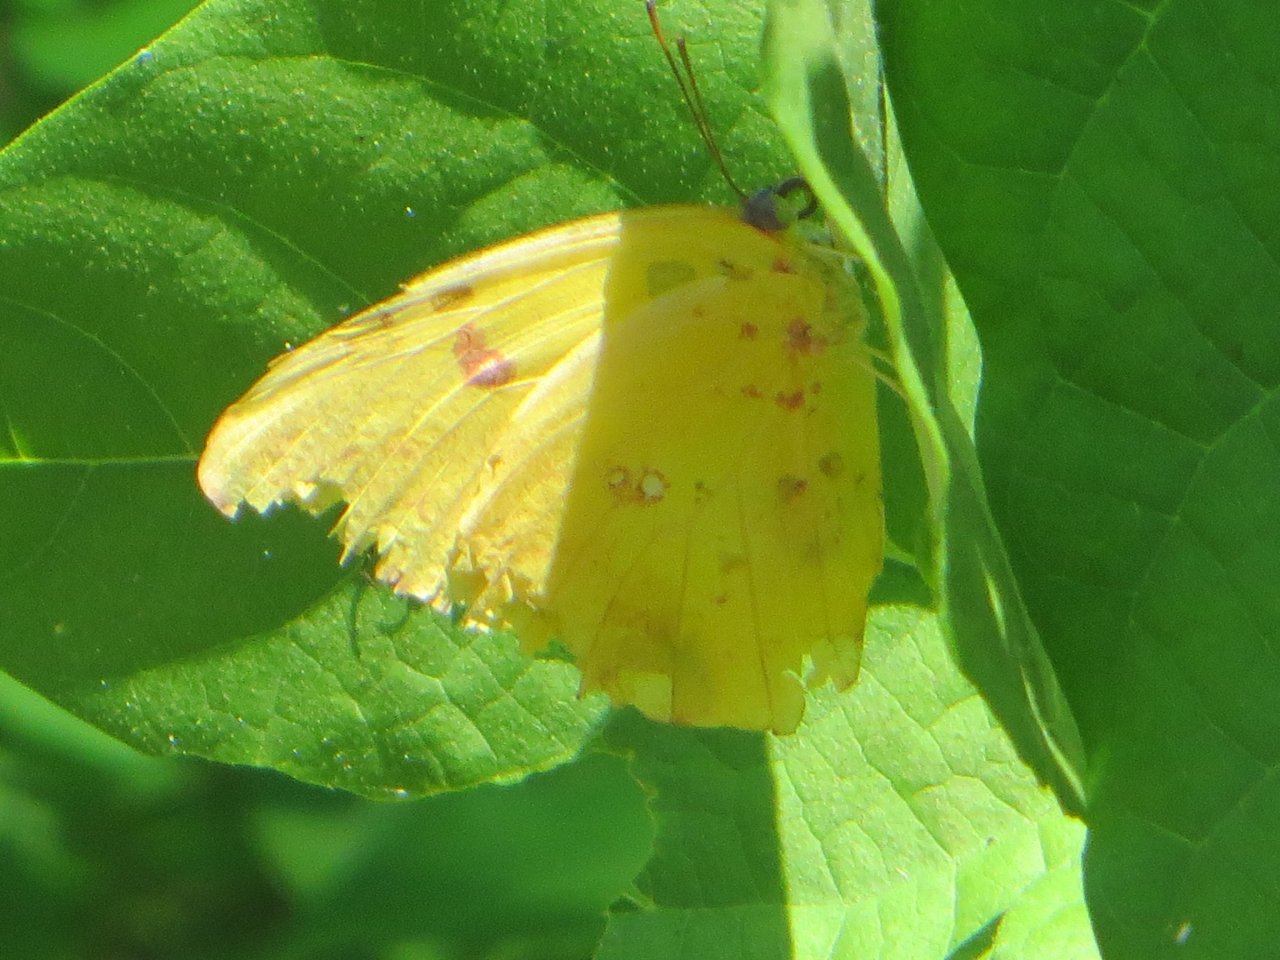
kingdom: Animalia
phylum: Arthropoda
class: Insecta
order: Lepidoptera
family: Pieridae
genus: Phoebis
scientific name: Phoebis sennae
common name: Cloudless Sulphur
